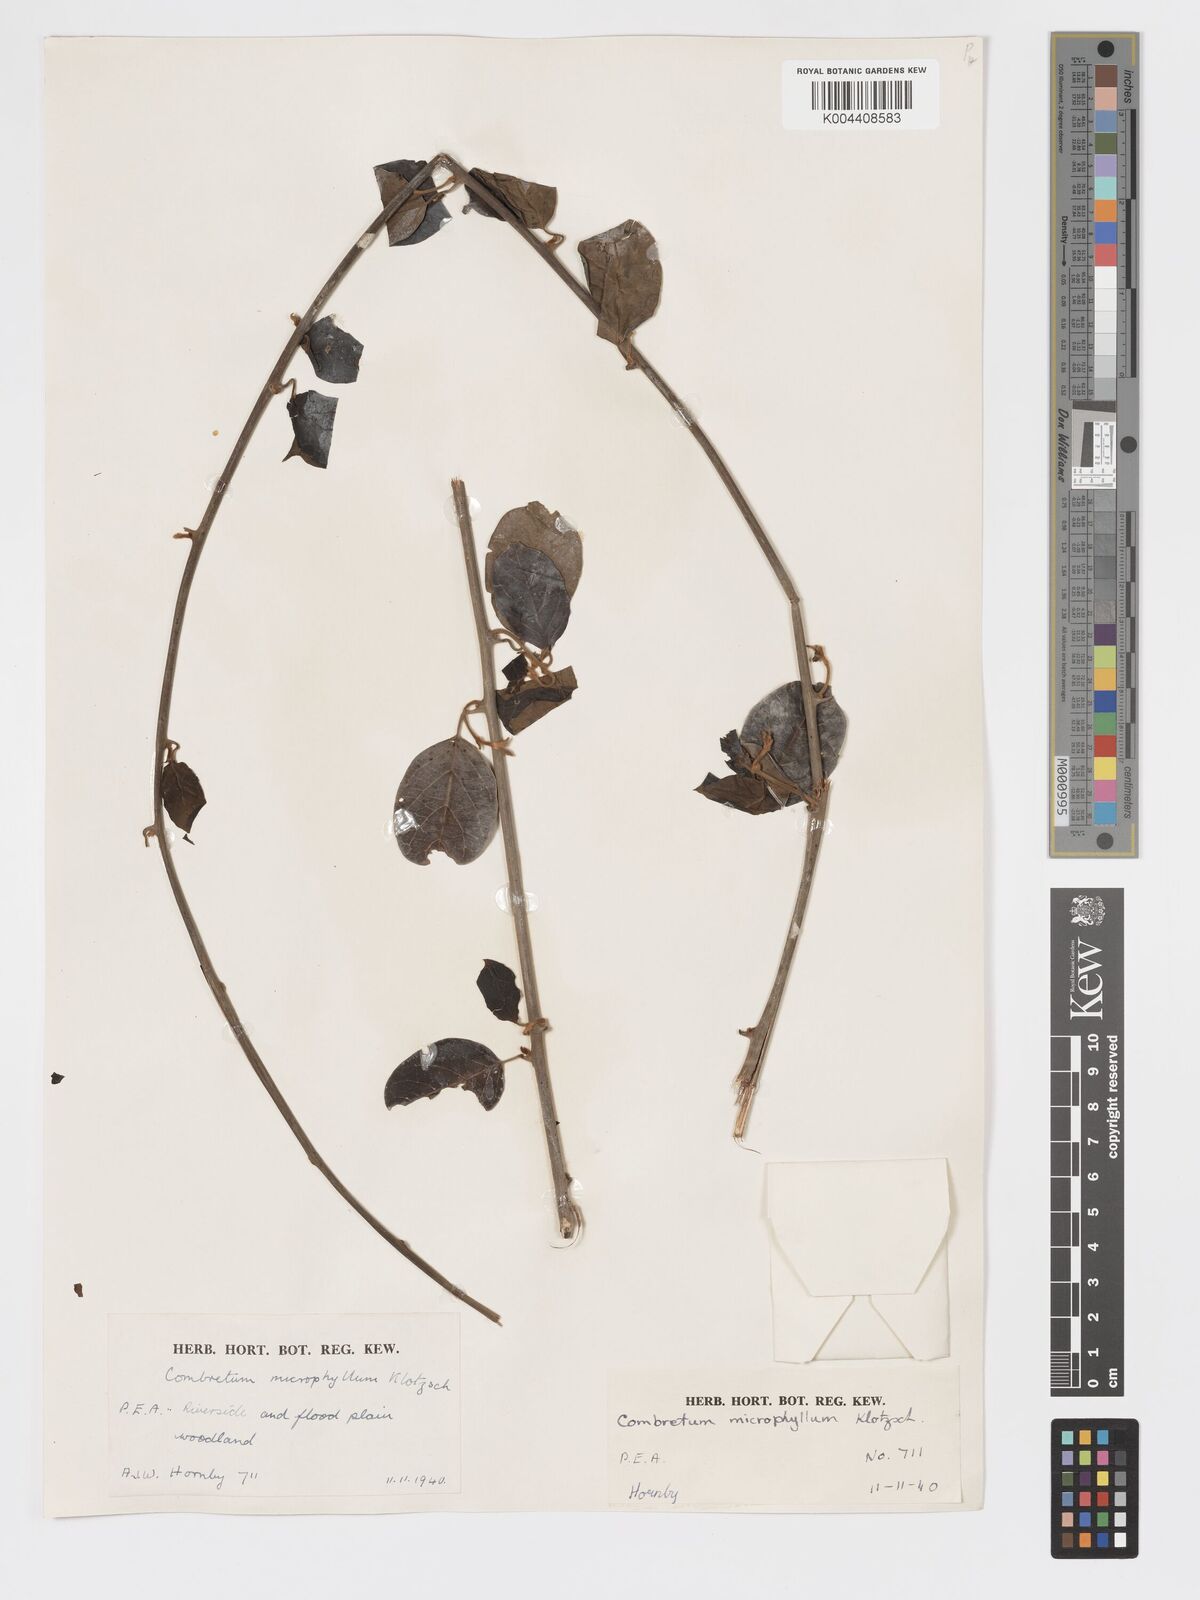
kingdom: Plantae
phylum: Tracheophyta
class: Magnoliopsida
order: Myrtales
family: Combretaceae
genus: Combretum
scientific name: Combretum microphyllum
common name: Burningbush
